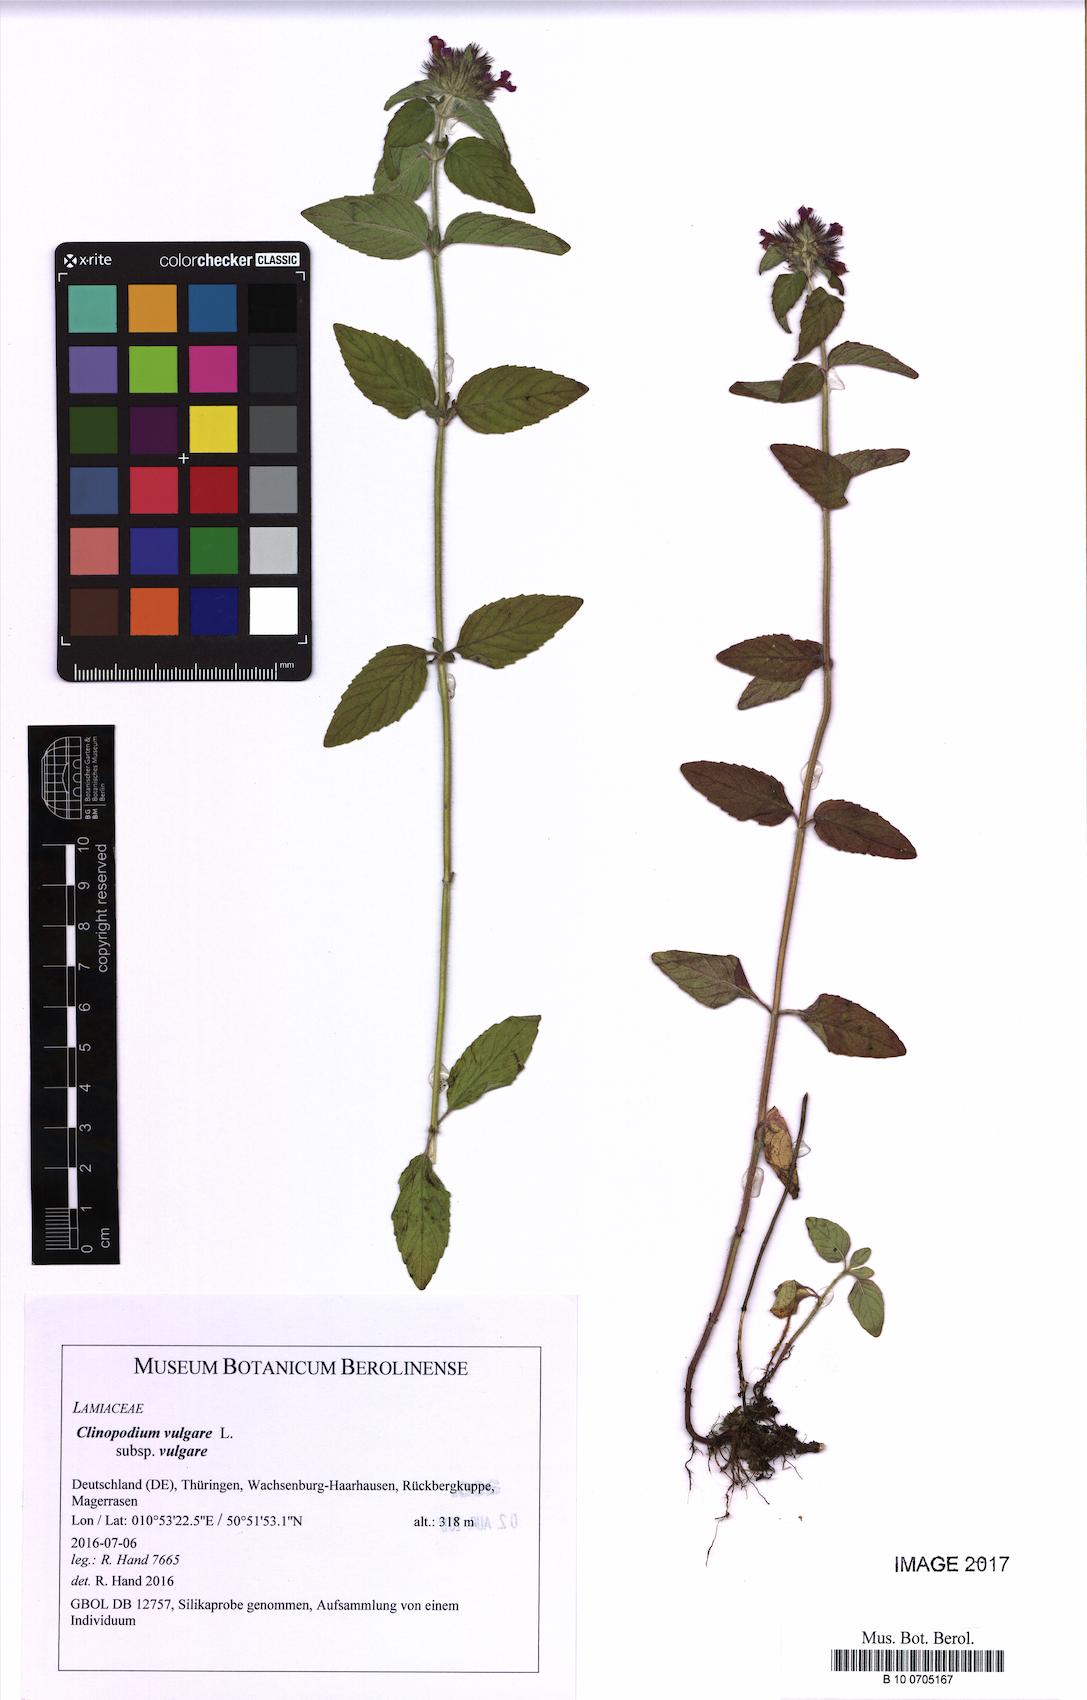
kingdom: Plantae
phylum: Tracheophyta
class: Magnoliopsida
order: Lamiales
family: Lamiaceae
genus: Clinopodium
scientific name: Clinopodium vulgare
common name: Wild basil
